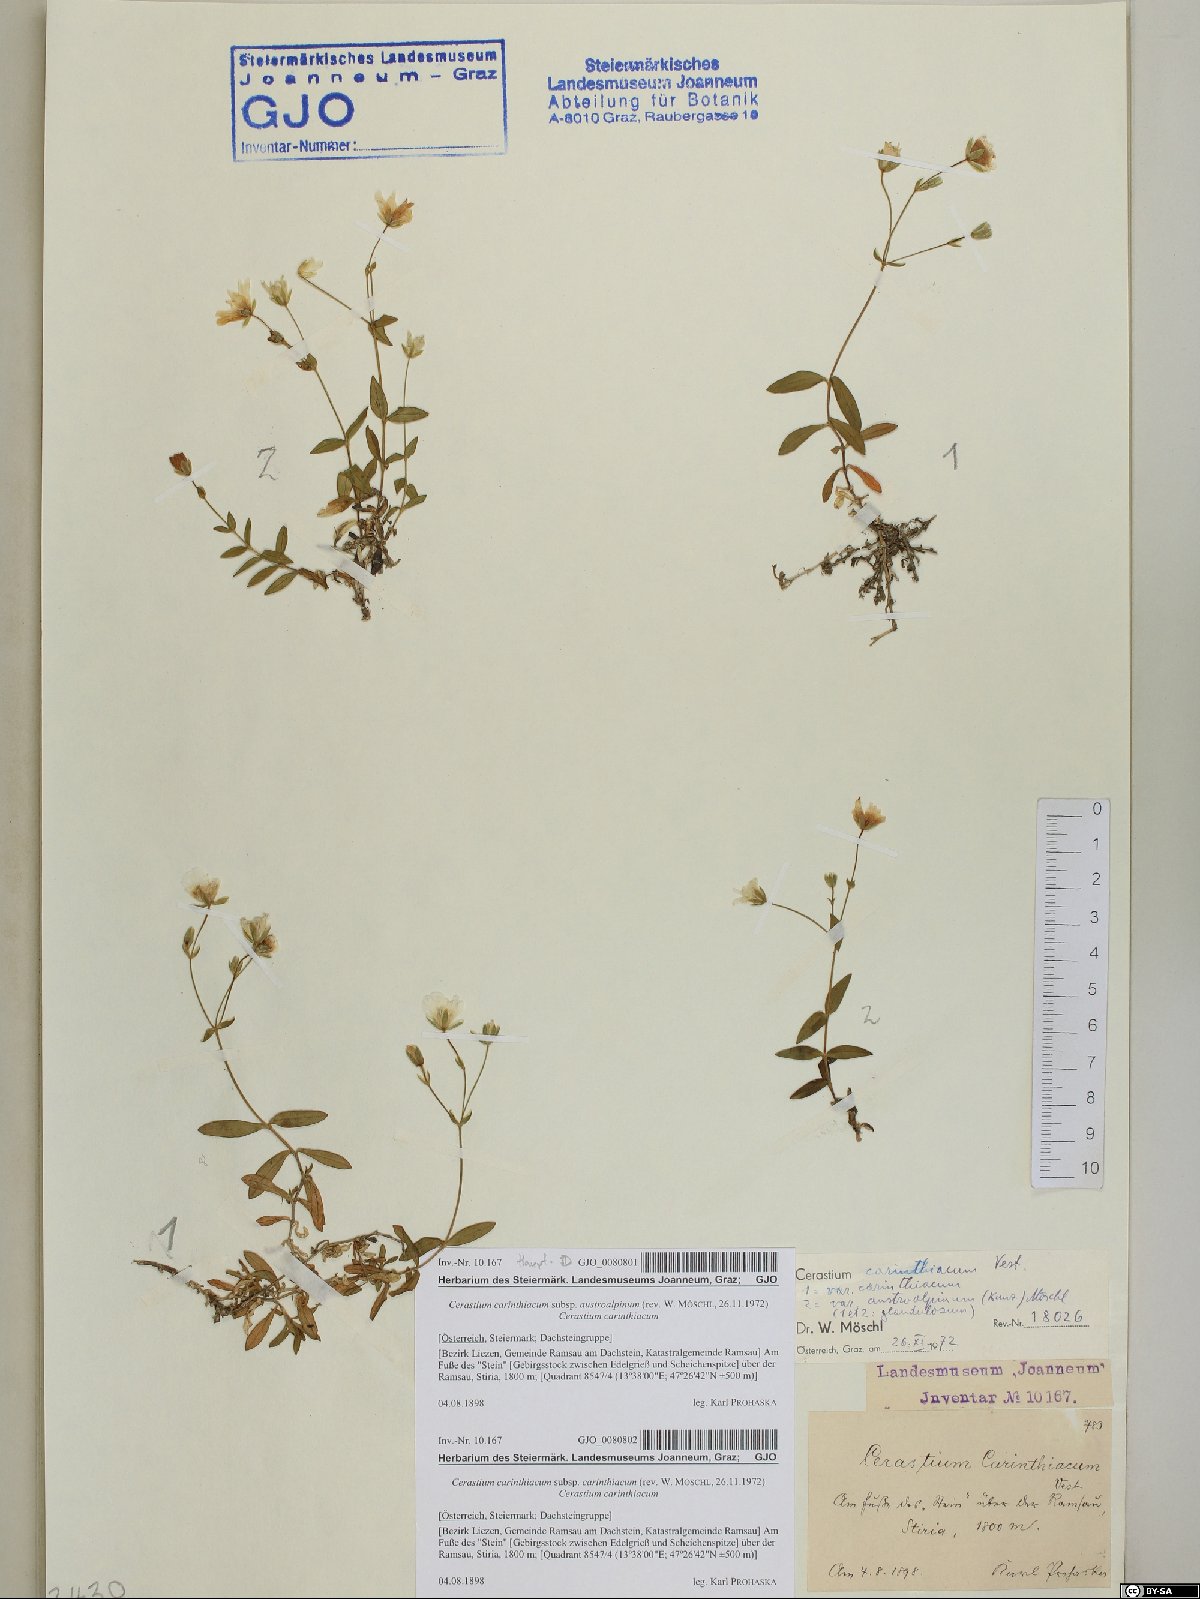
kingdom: Plantae
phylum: Tracheophyta
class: Magnoliopsida
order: Caryophyllales
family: Caryophyllaceae
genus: Cerastium
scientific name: Cerastium carinthiacum
